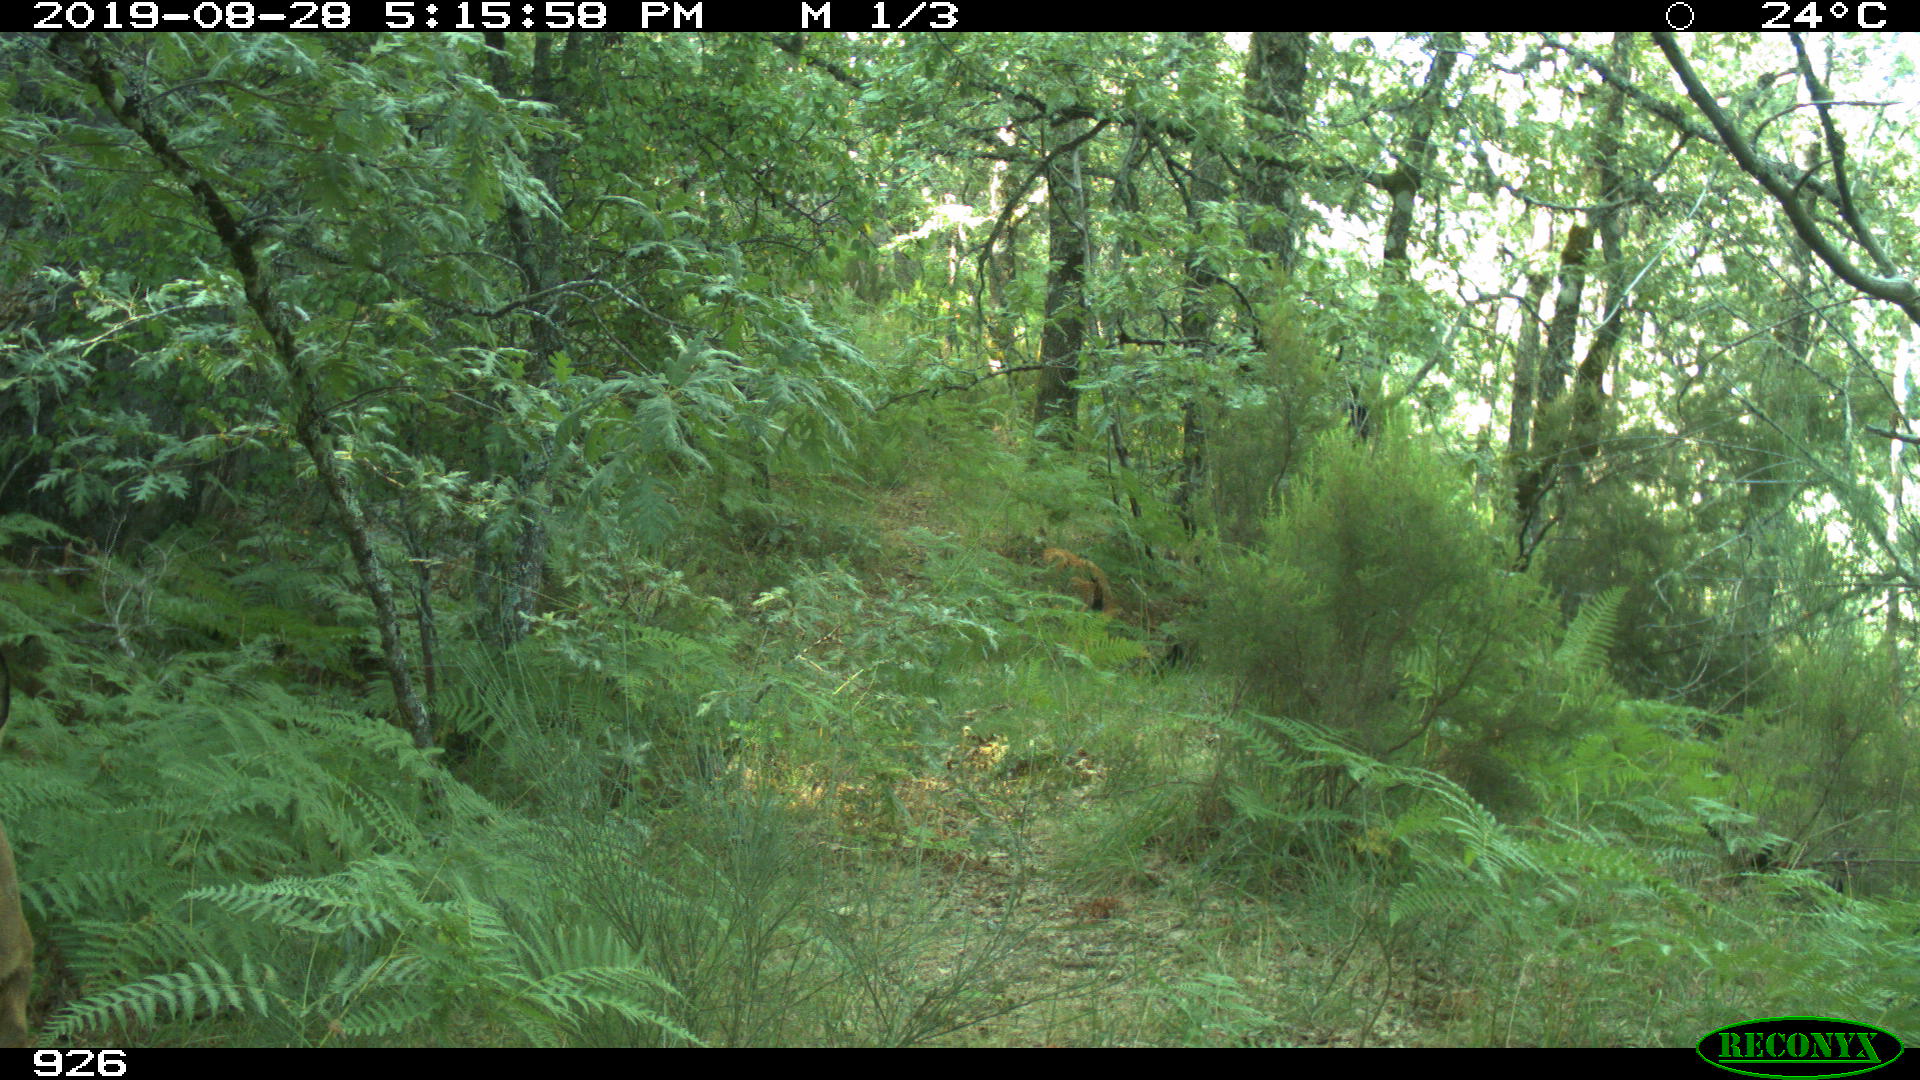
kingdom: Animalia
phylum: Chordata
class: Mammalia
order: Artiodactyla
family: Cervidae
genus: Capreolus
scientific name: Capreolus capreolus
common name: Western roe deer
